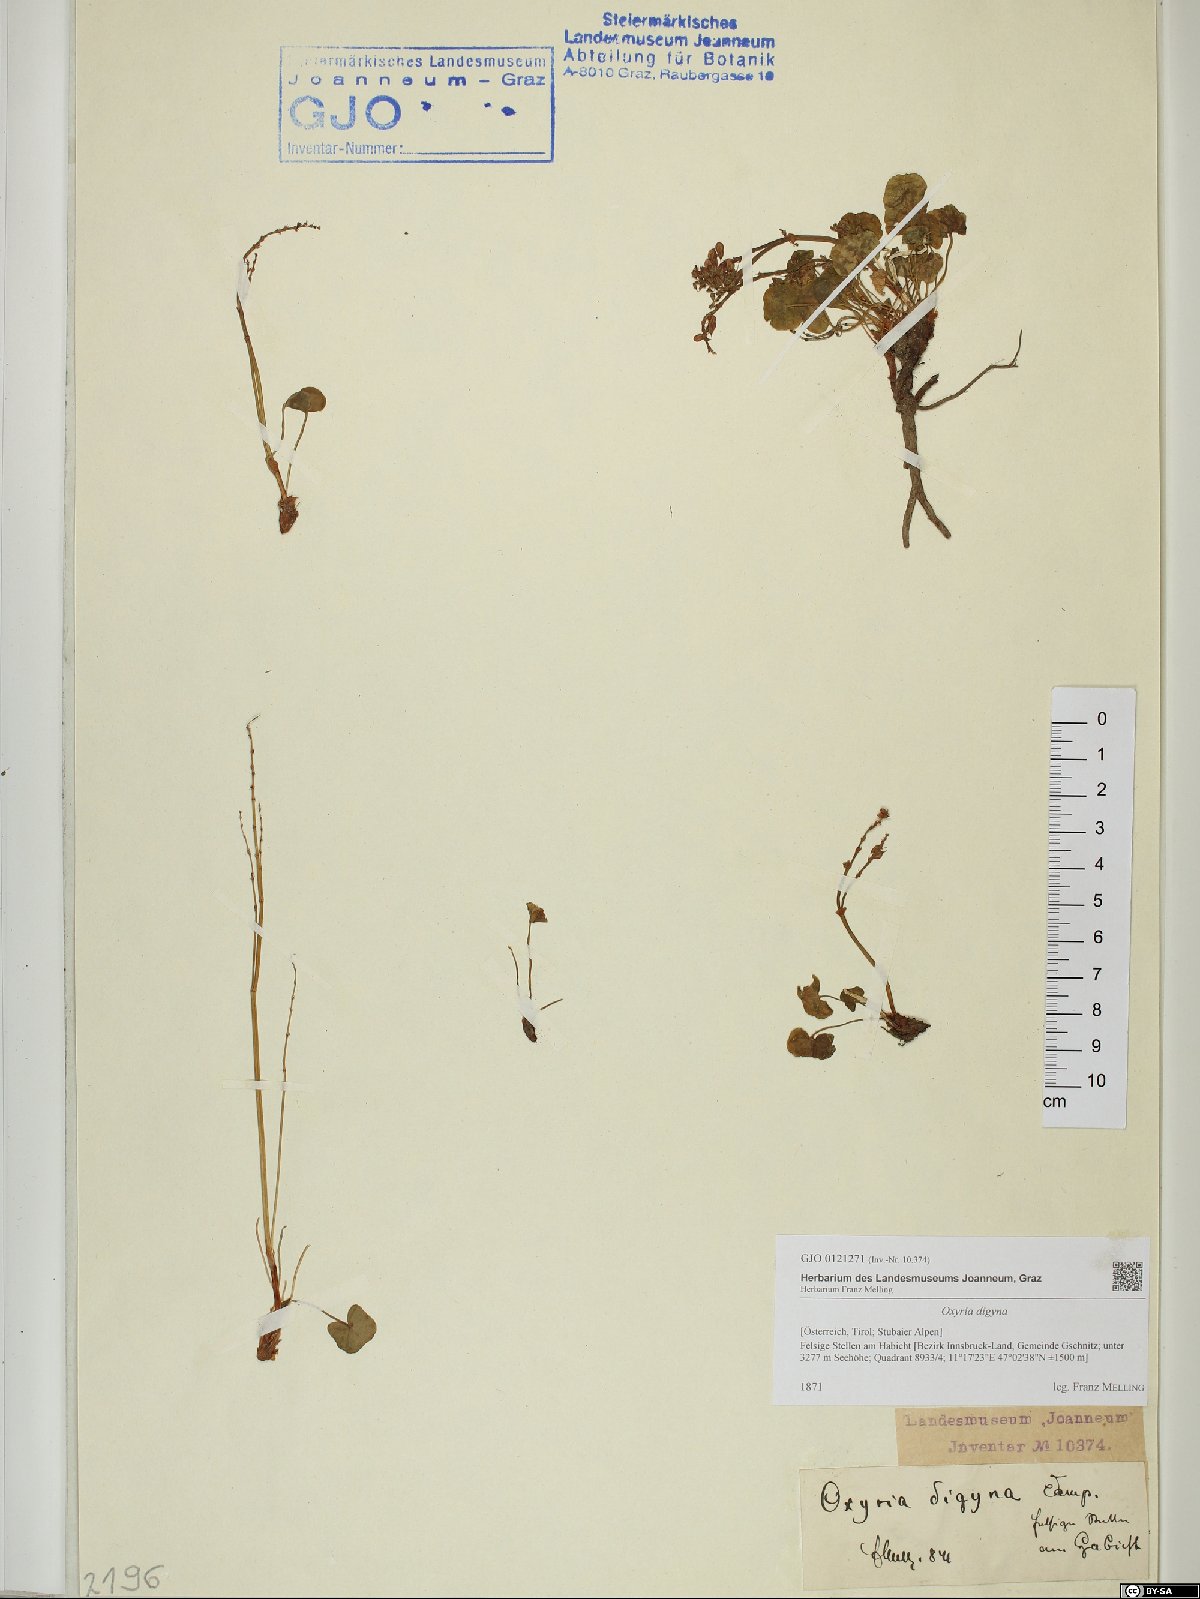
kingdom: Plantae
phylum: Tracheophyta
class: Magnoliopsida
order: Caryophyllales
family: Polygonaceae
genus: Oxyria
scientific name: Oxyria digyna
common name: Alpine mountain-sorrel
